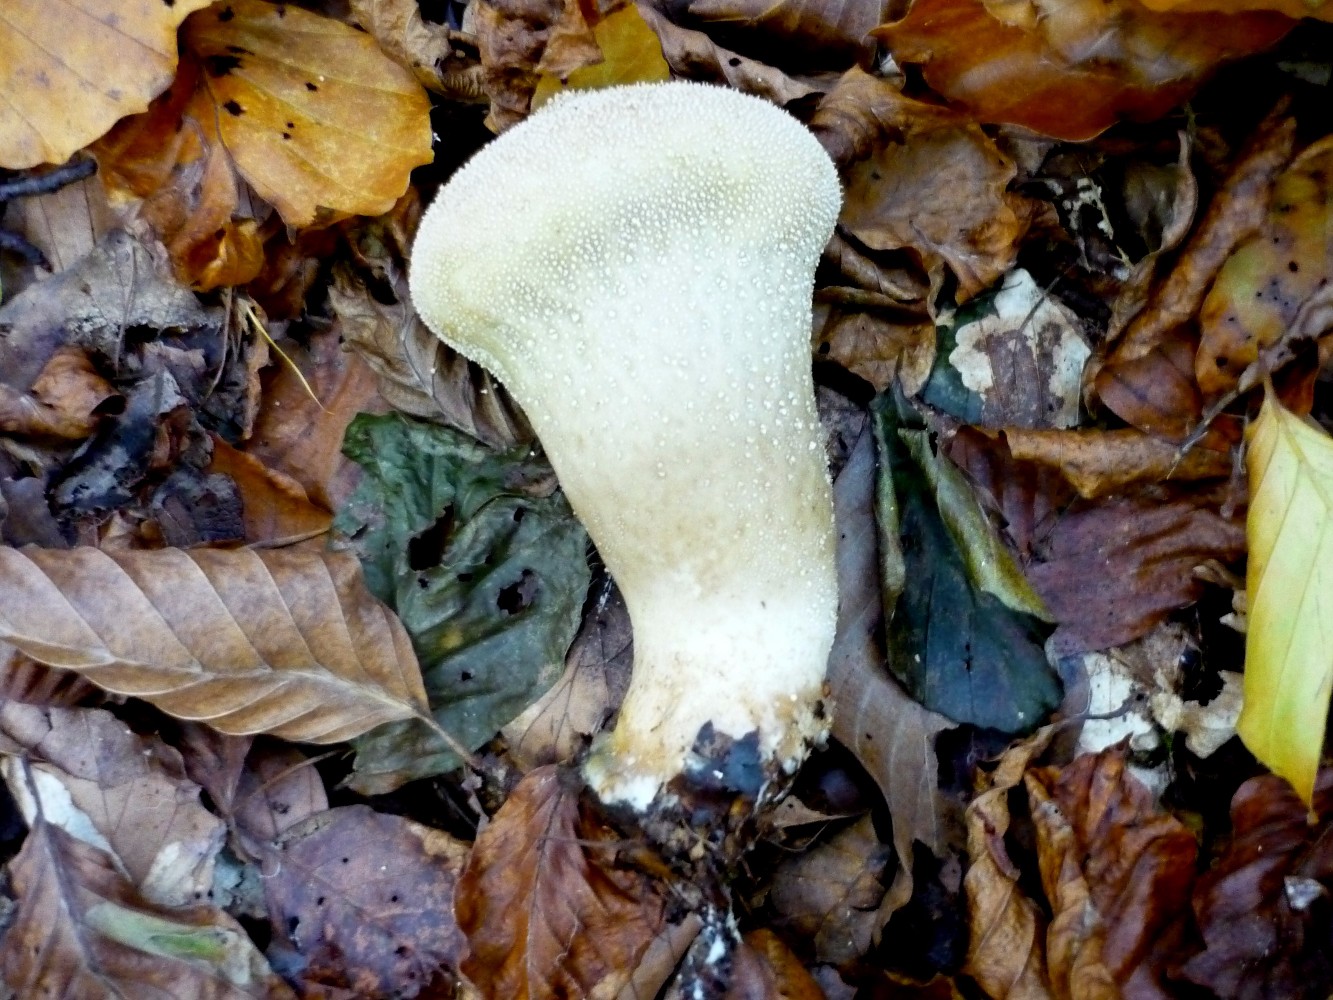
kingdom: Fungi
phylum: Basidiomycota
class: Agaricomycetes
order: Agaricales
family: Lycoperdaceae
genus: Lycoperdon
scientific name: Lycoperdon excipuliforme
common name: højstokket støvbold
